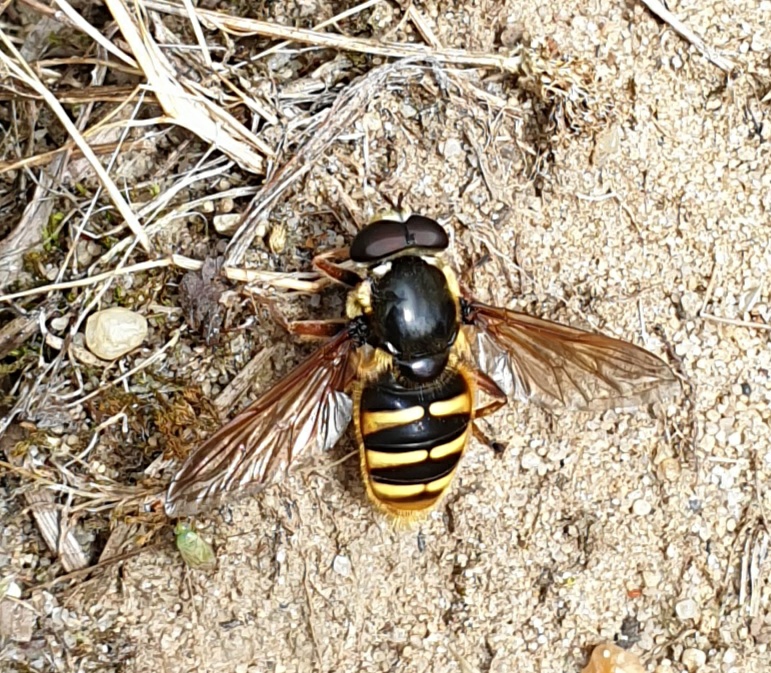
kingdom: Animalia
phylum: Arthropoda
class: Insecta
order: Diptera
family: Syrphidae
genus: Sericomyia
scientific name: Sericomyia silentis
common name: Tørve-silkesvirreflue
